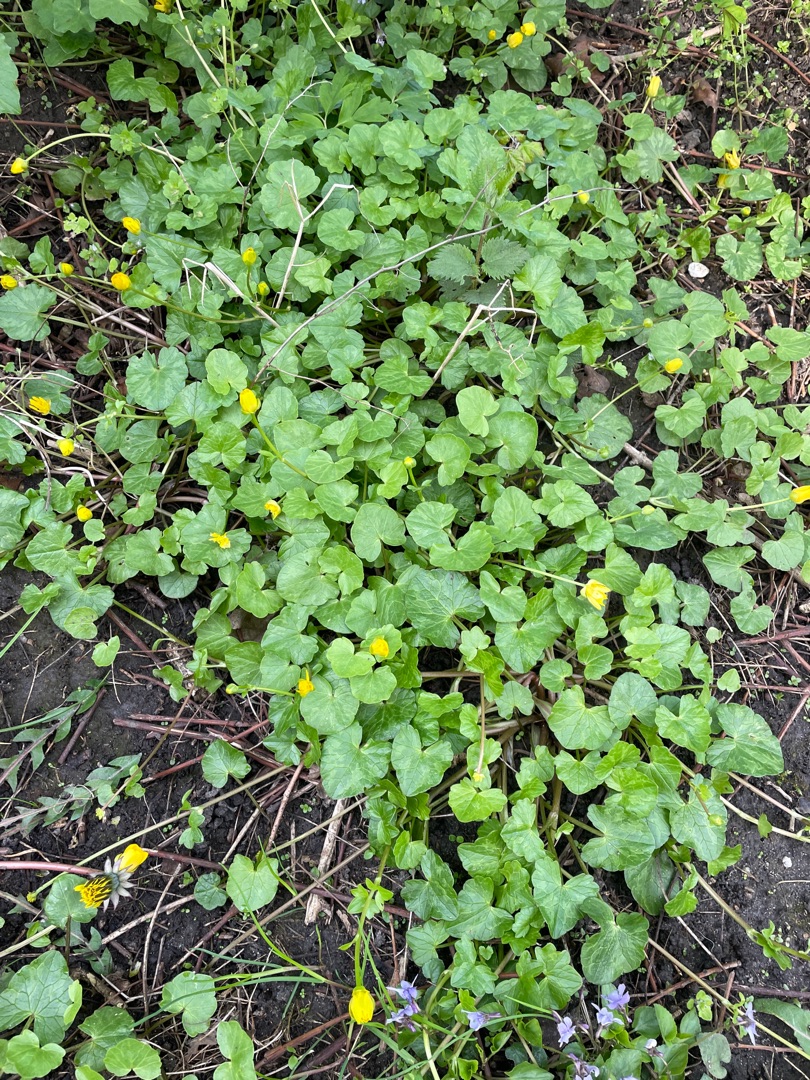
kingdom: Plantae
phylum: Tracheophyta
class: Magnoliopsida
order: Ranunculales
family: Ranunculaceae
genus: Ficaria
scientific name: Ficaria verna
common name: Vorterod
